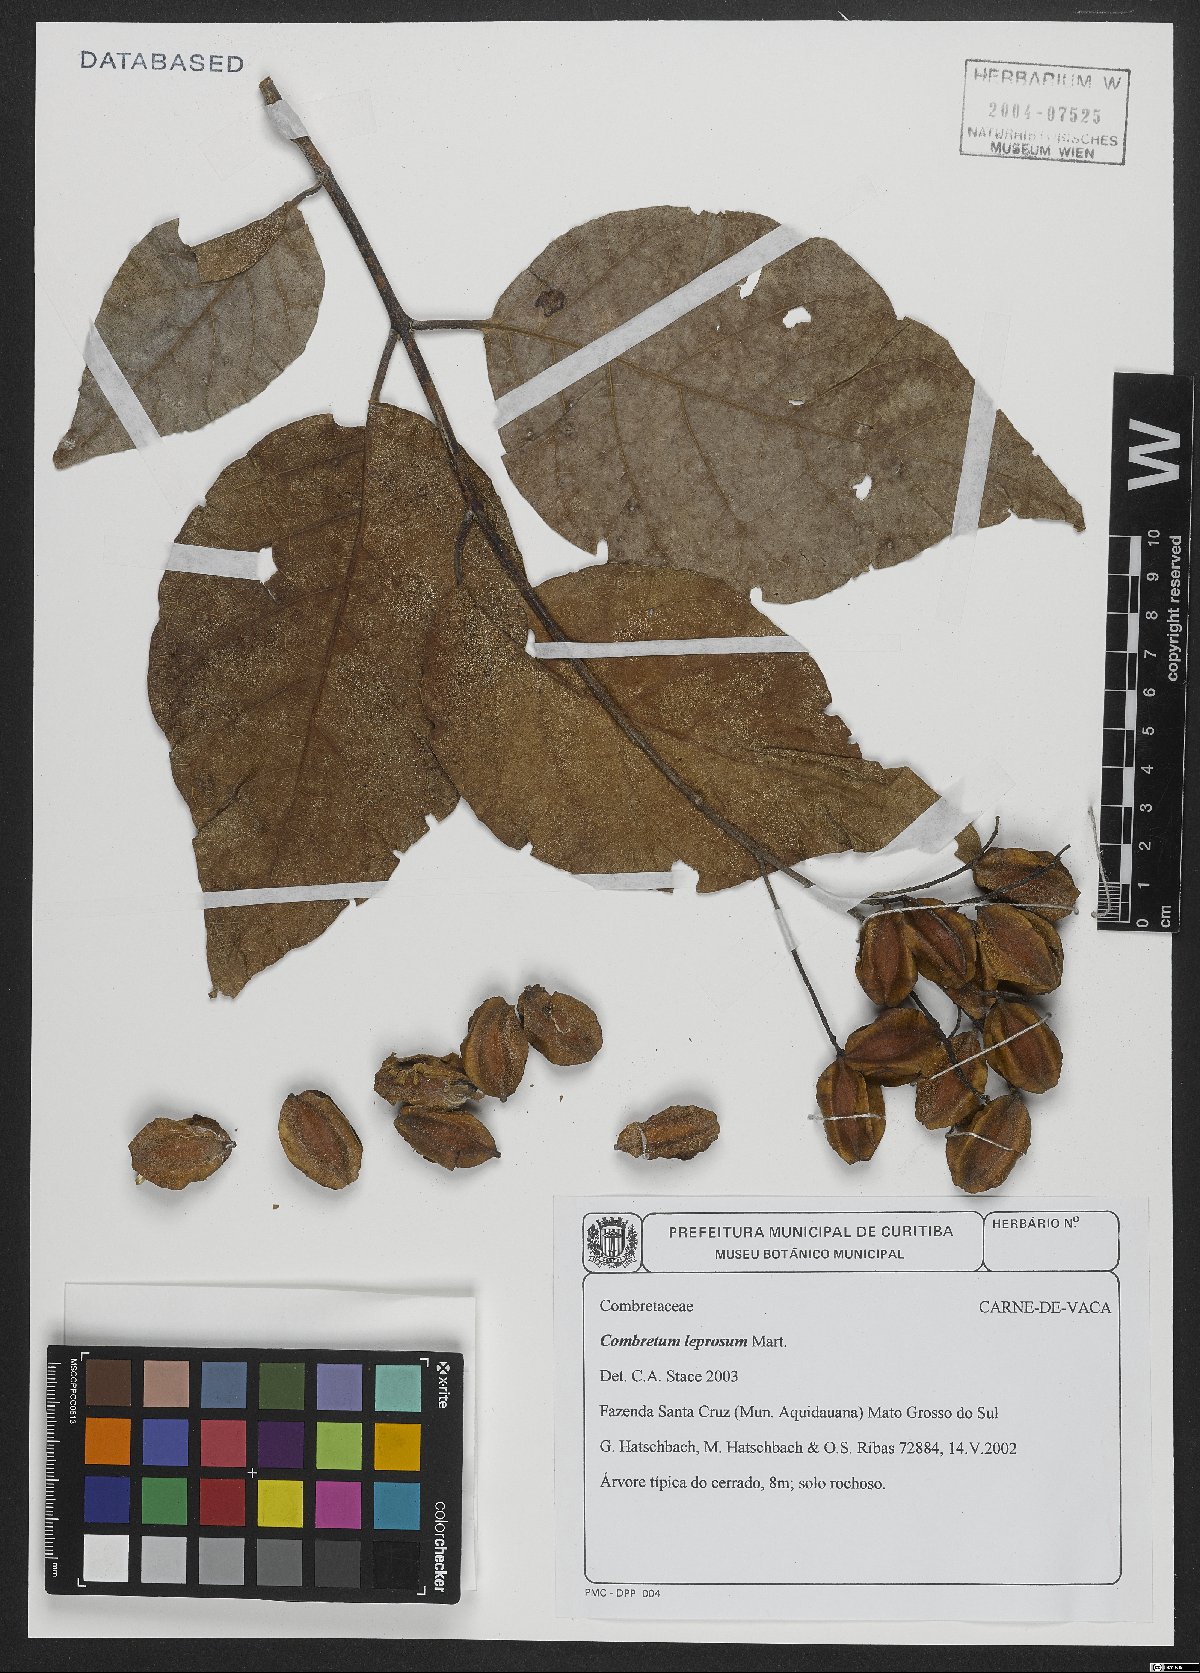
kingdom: Plantae
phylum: Tracheophyta
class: Magnoliopsida
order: Myrtales
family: Combretaceae
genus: Combretum
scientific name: Combretum leprosum
